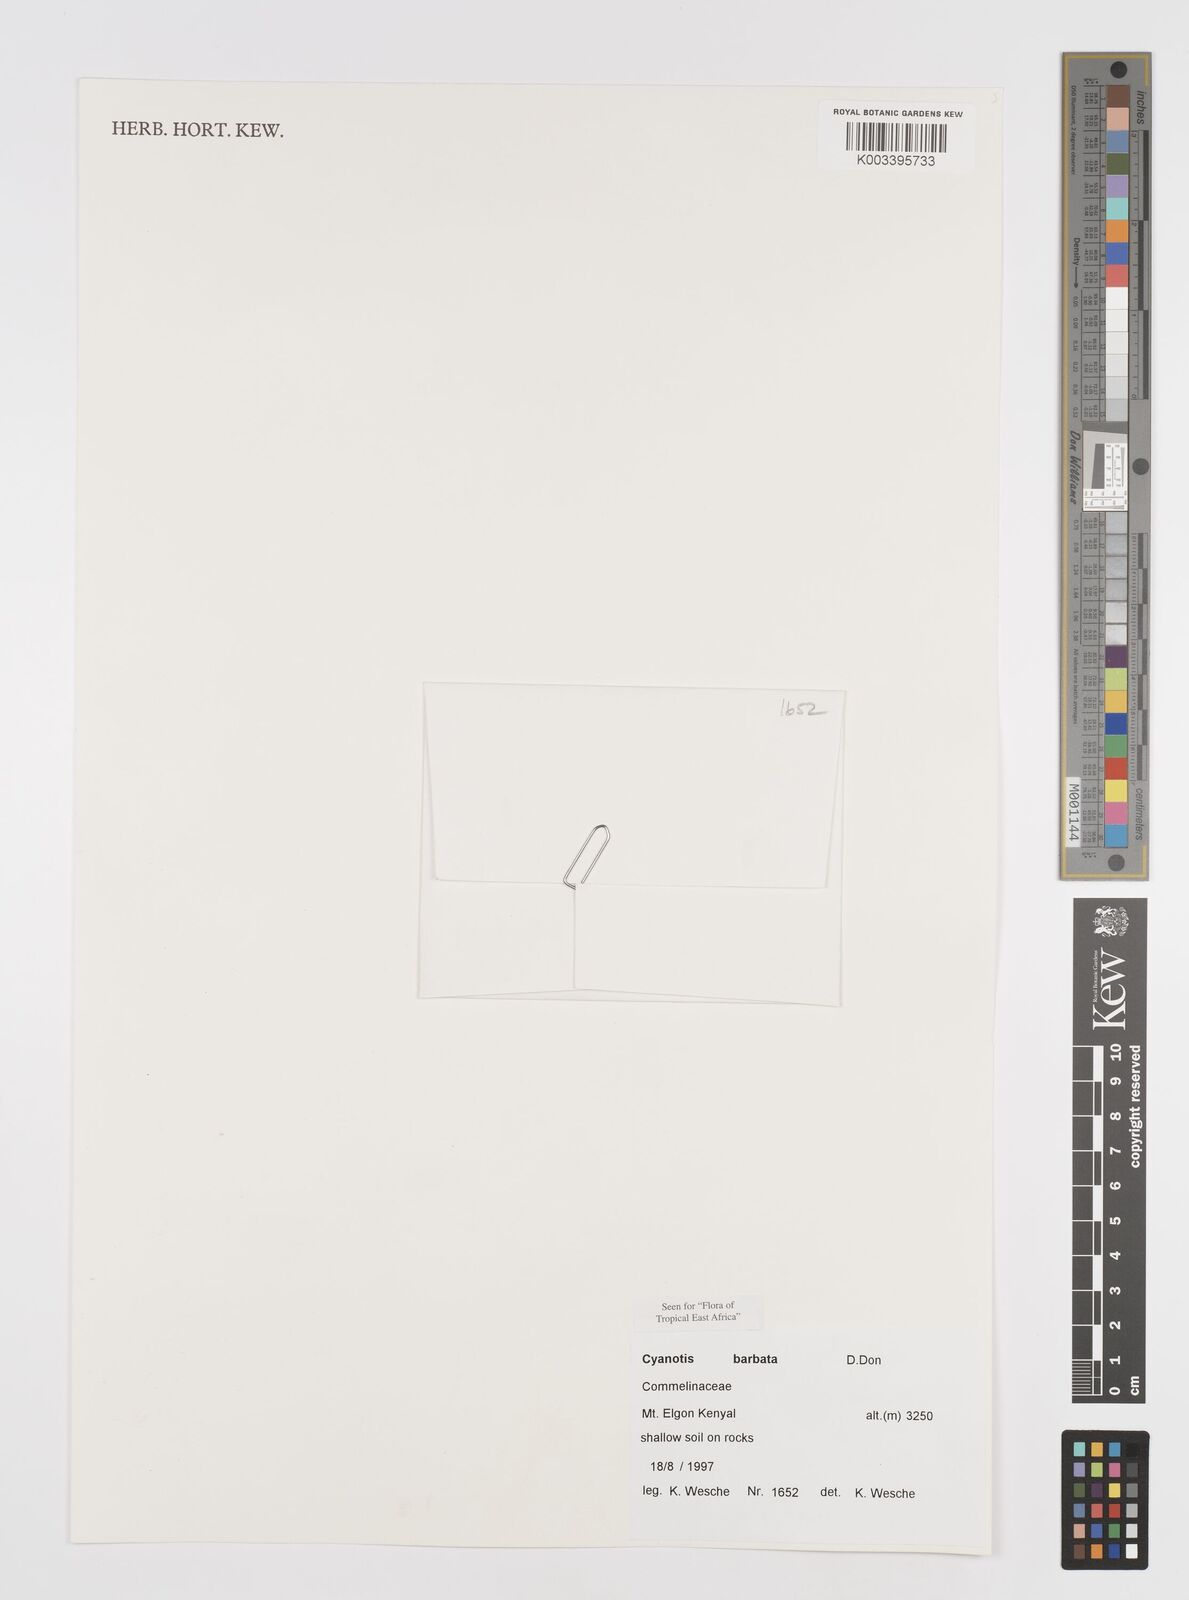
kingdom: Plantae
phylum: Tracheophyta
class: Liliopsida
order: Commelinales
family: Commelinaceae
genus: Cyanotis
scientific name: Cyanotis vaga
